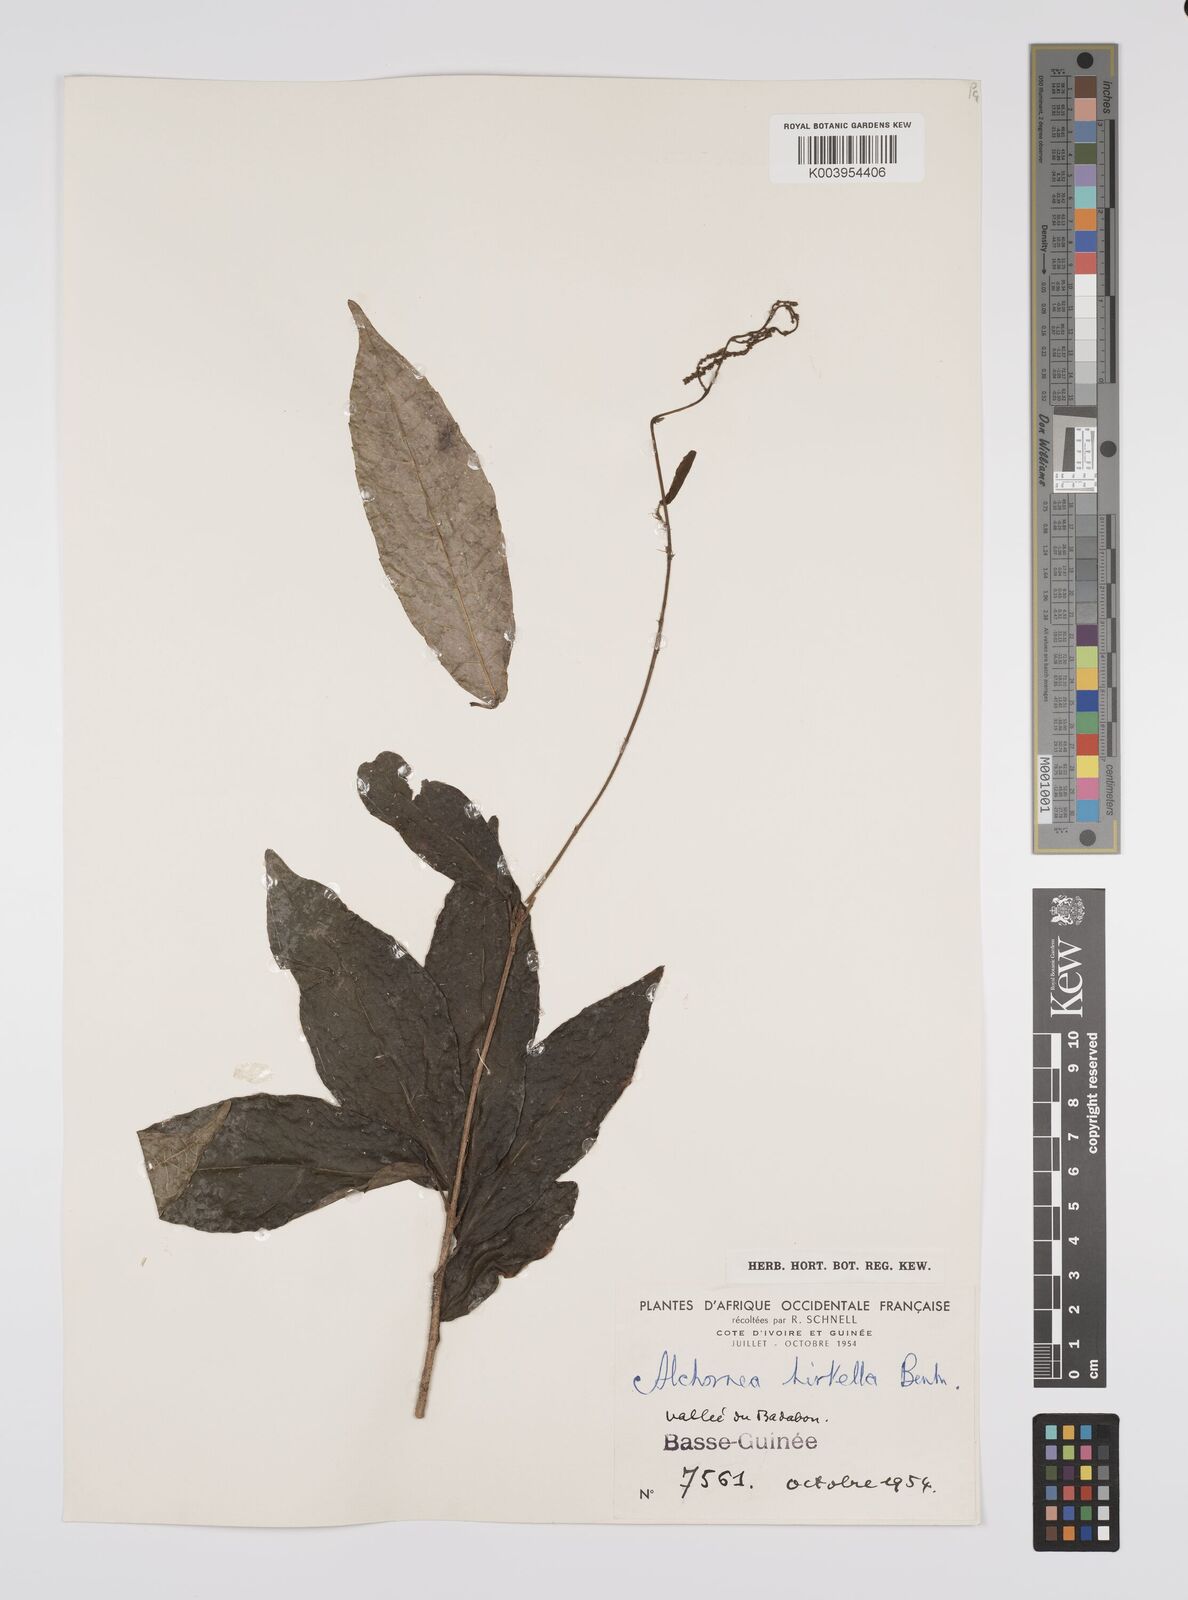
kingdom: Plantae
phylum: Tracheophyta
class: Magnoliopsida
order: Malpighiales
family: Euphorbiaceae
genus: Alchornea
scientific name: Alchornea hirtella
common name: Forest bead-string
